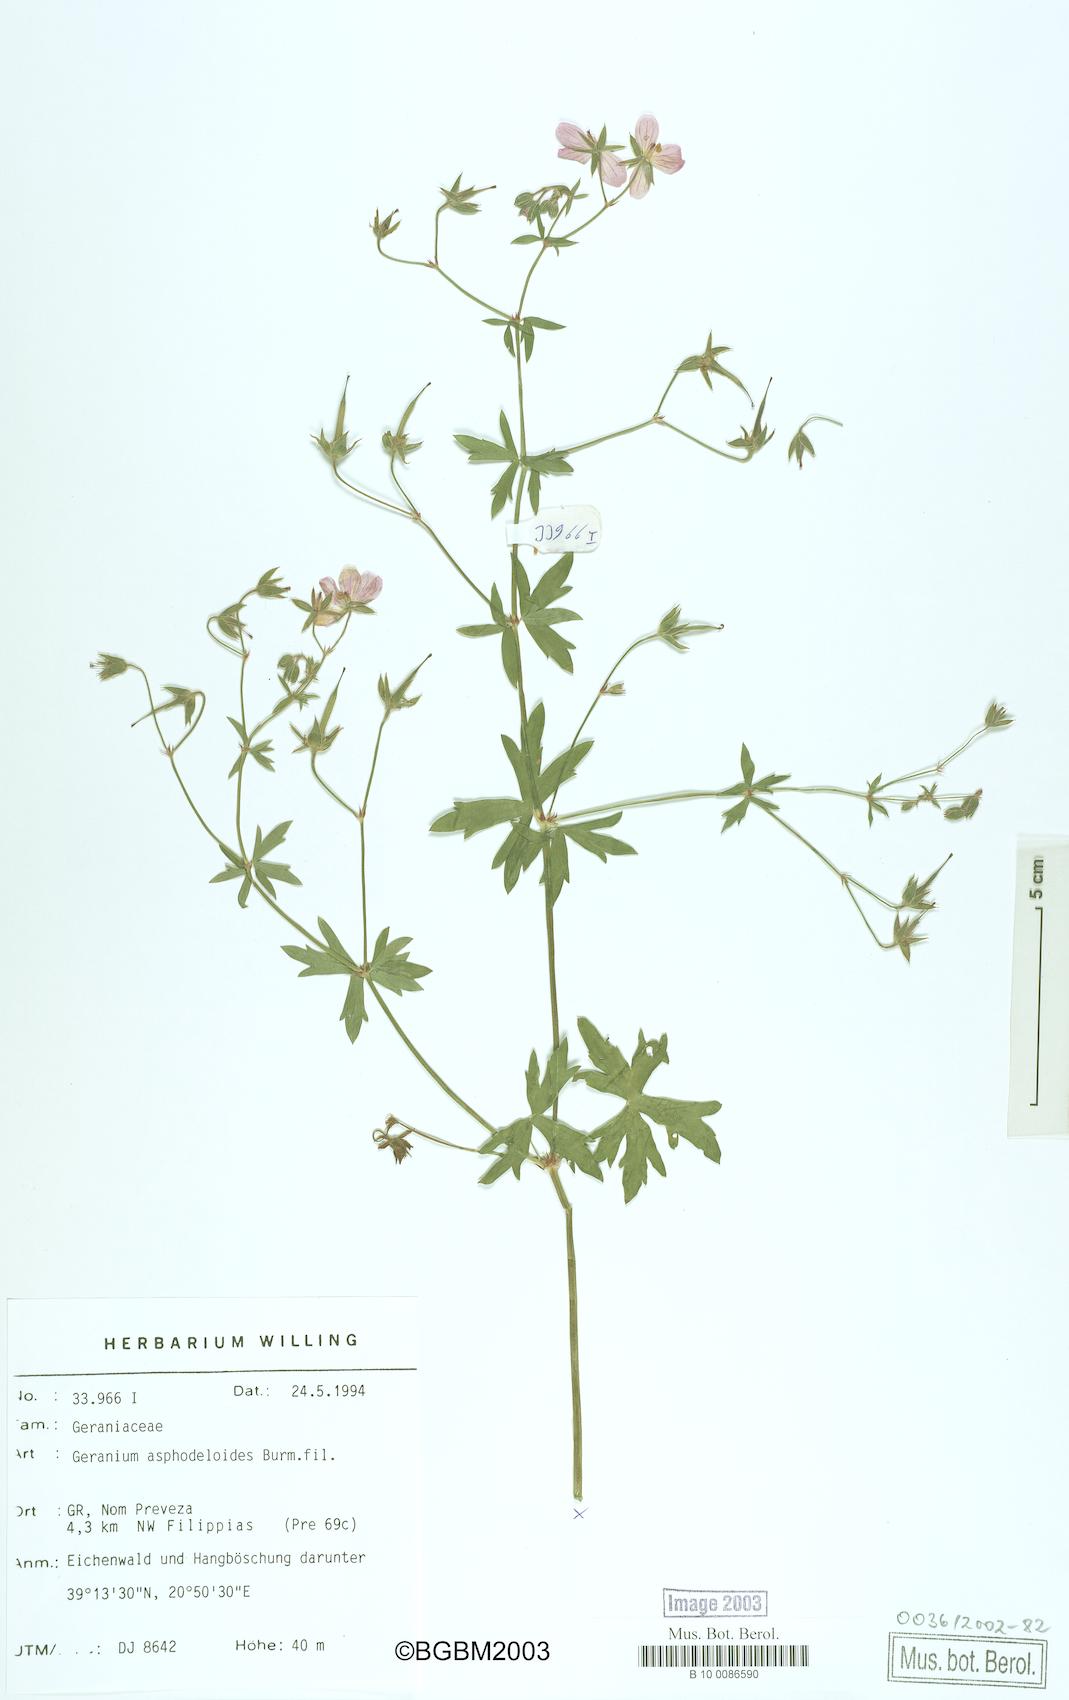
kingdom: Plantae
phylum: Tracheophyta
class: Magnoliopsida
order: Geraniales
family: Geraniaceae
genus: Geranium
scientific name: Geranium asphodeloides
